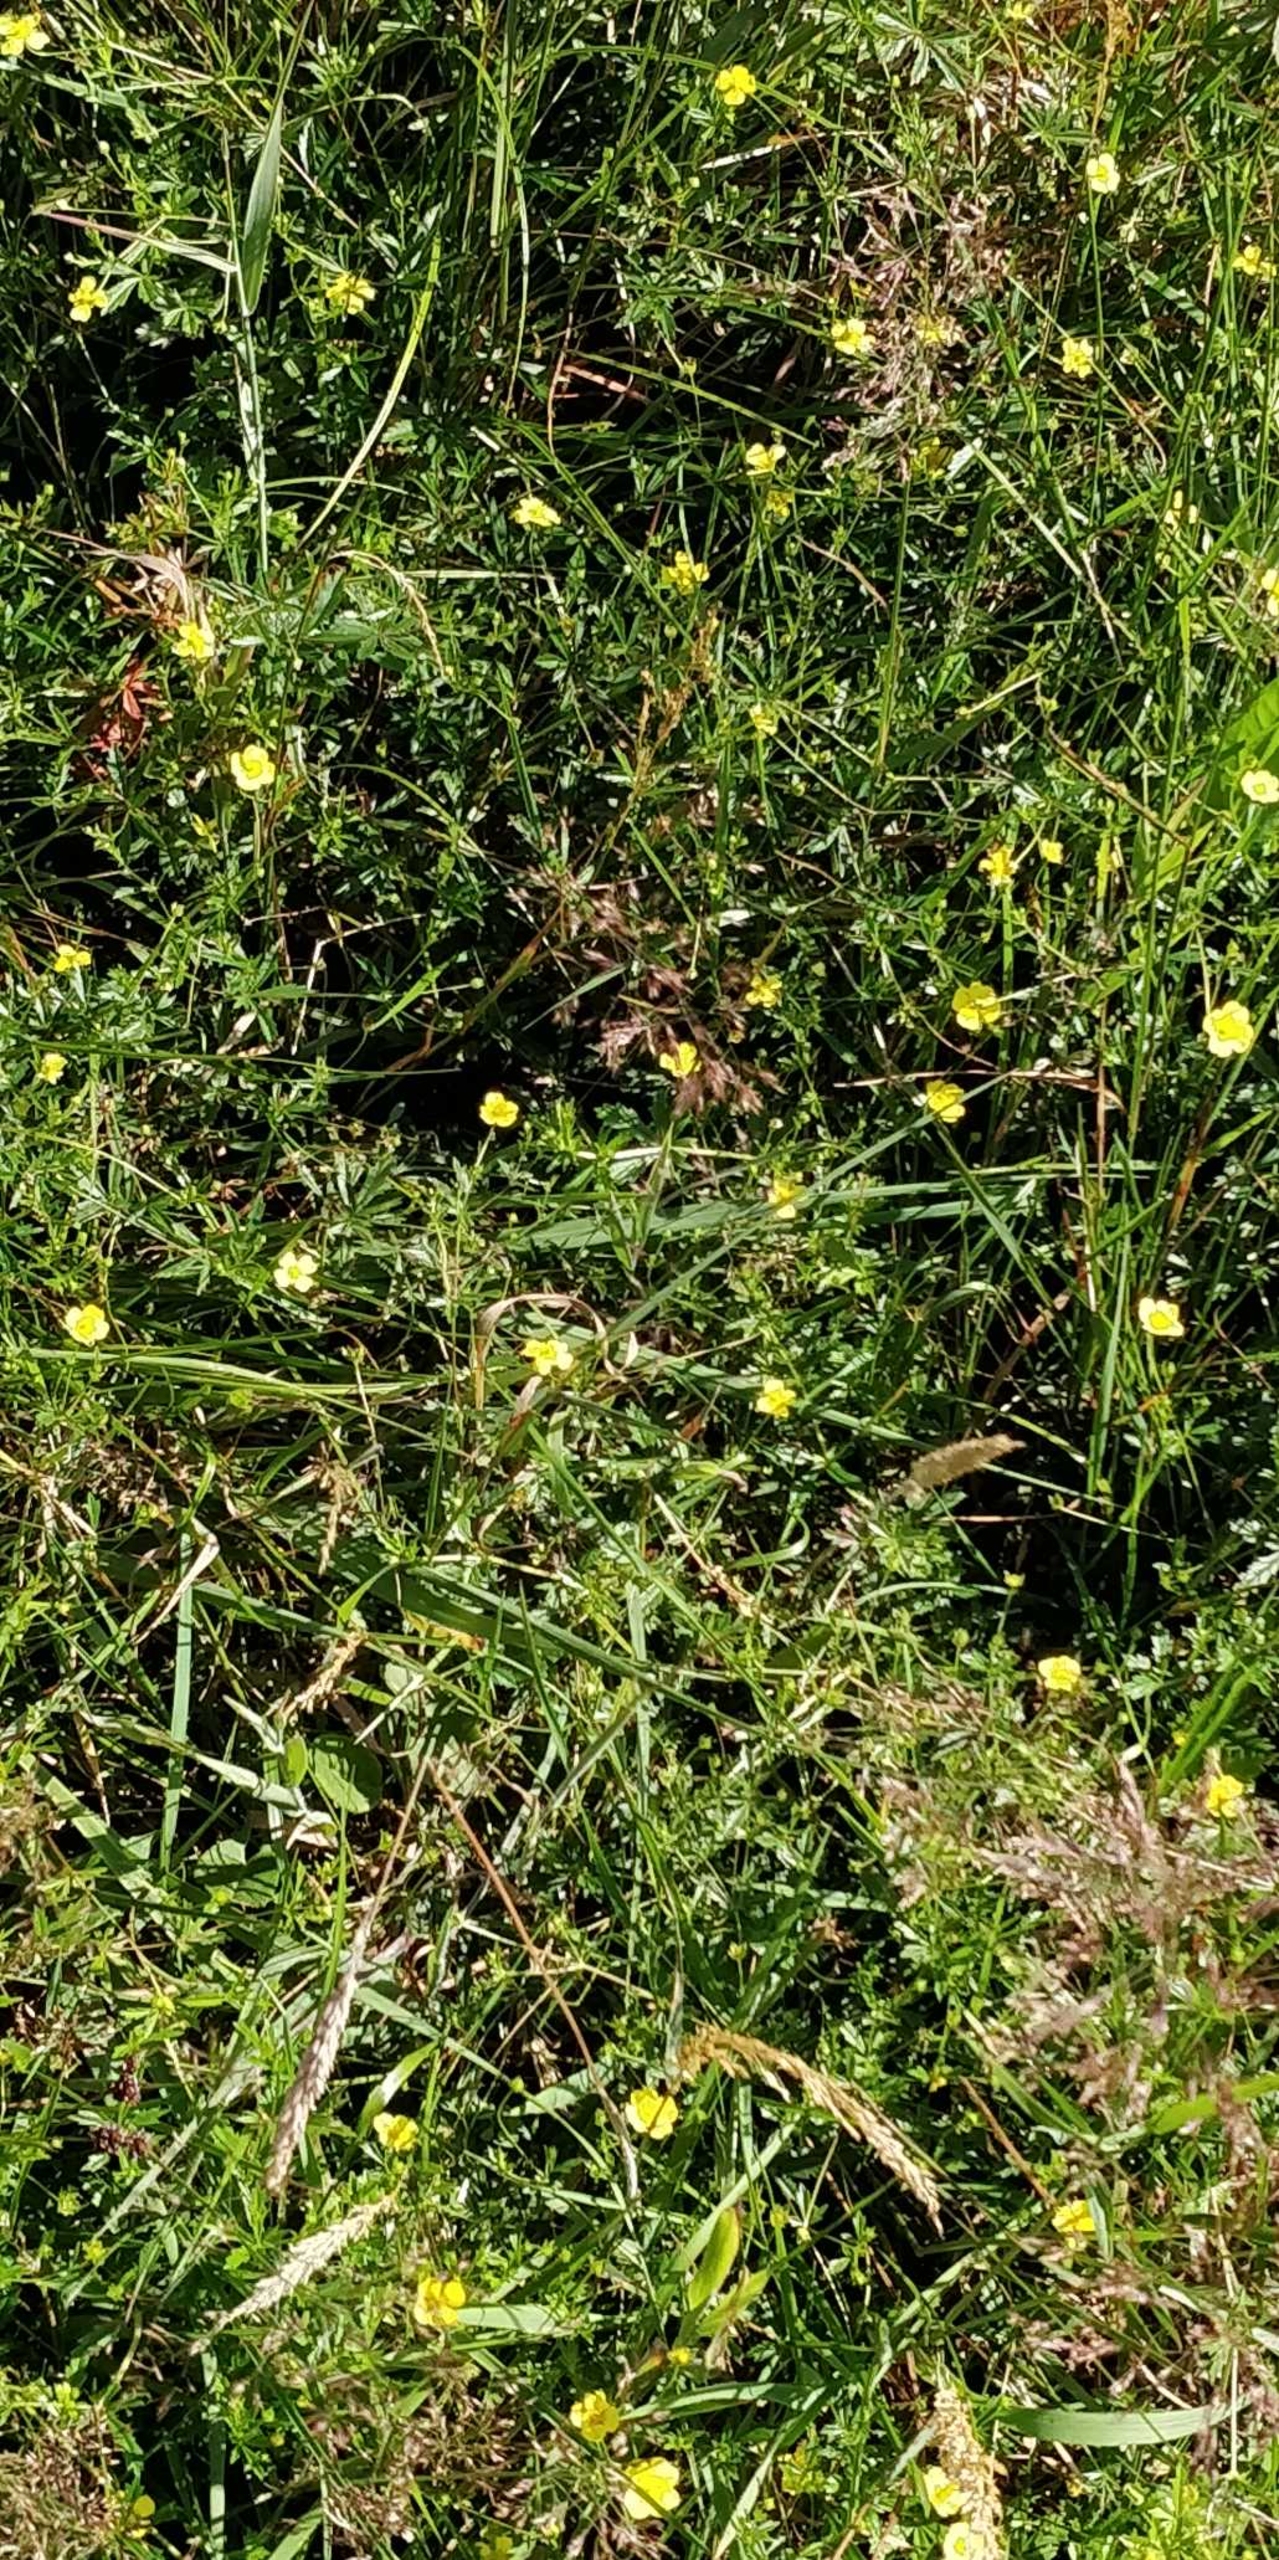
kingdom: Plantae
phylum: Tracheophyta
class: Magnoliopsida
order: Rosales
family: Rosaceae
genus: Potentilla
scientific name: Potentilla erecta
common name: Tormentil
